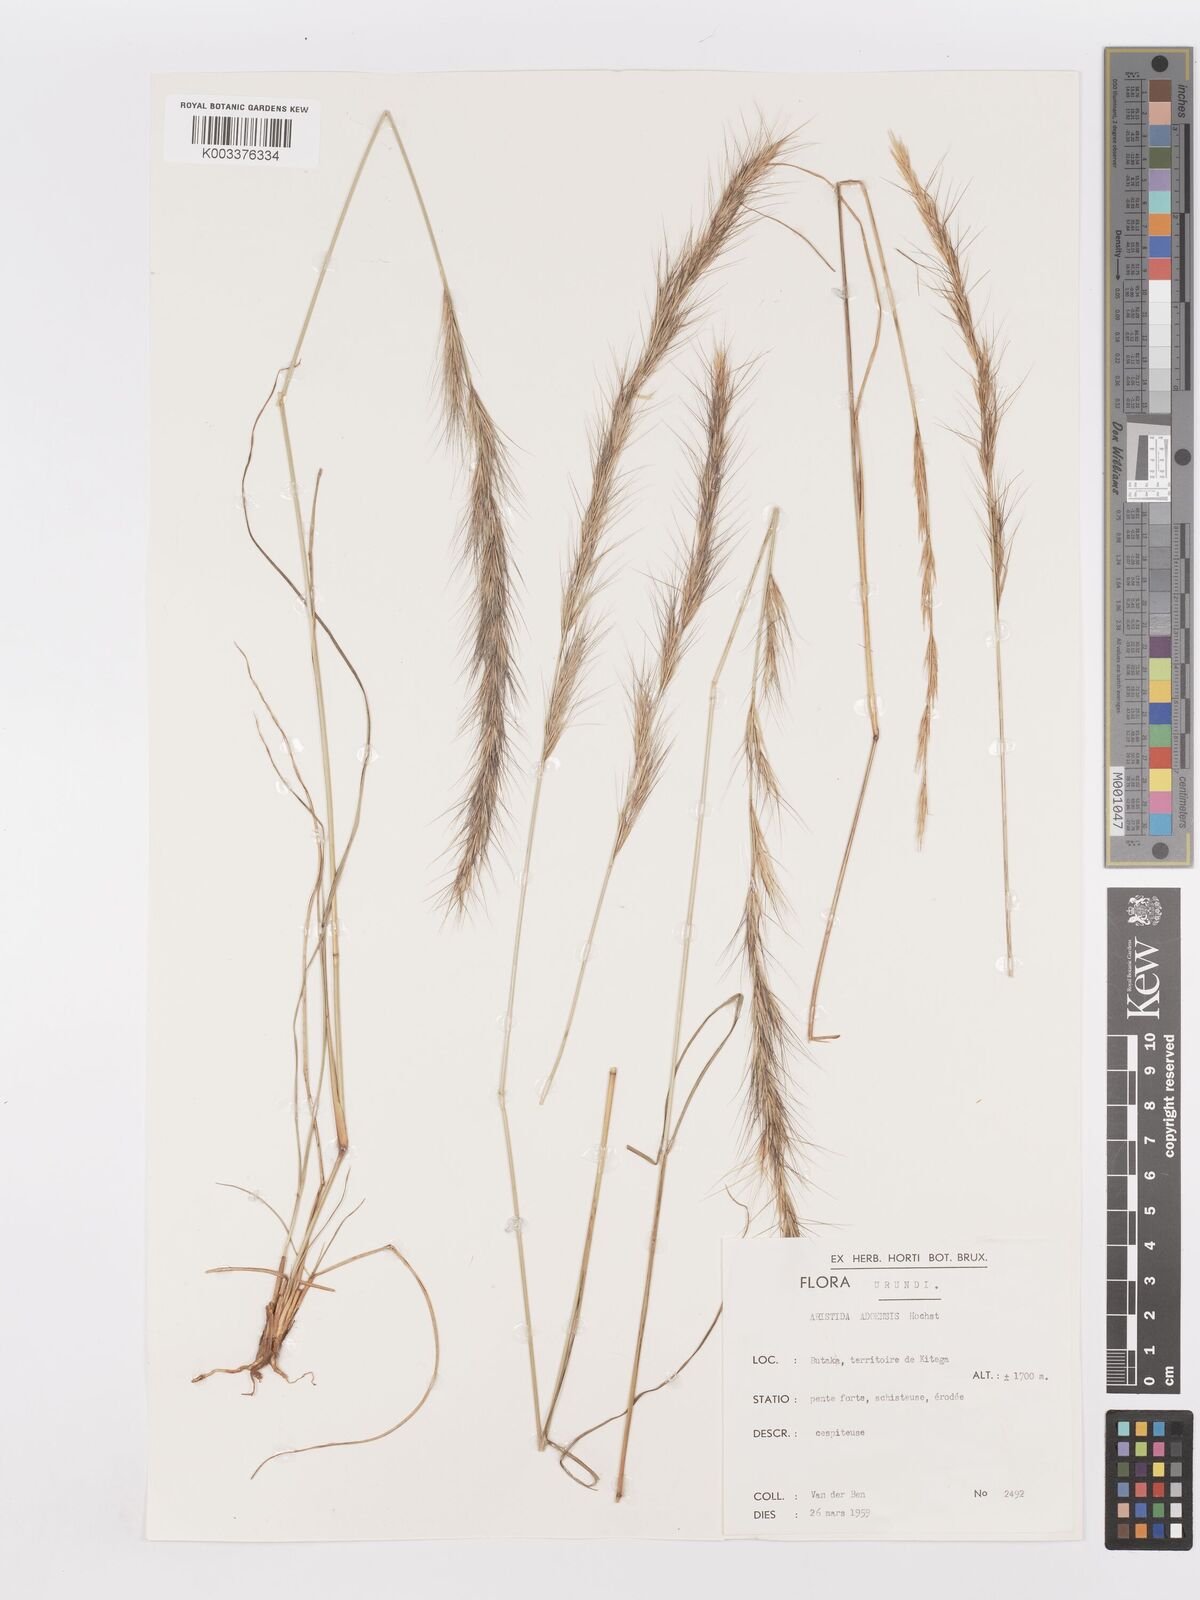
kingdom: Plantae
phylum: Tracheophyta
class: Liliopsida
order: Poales
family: Poaceae
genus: Aristida
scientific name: Aristida adoensis
